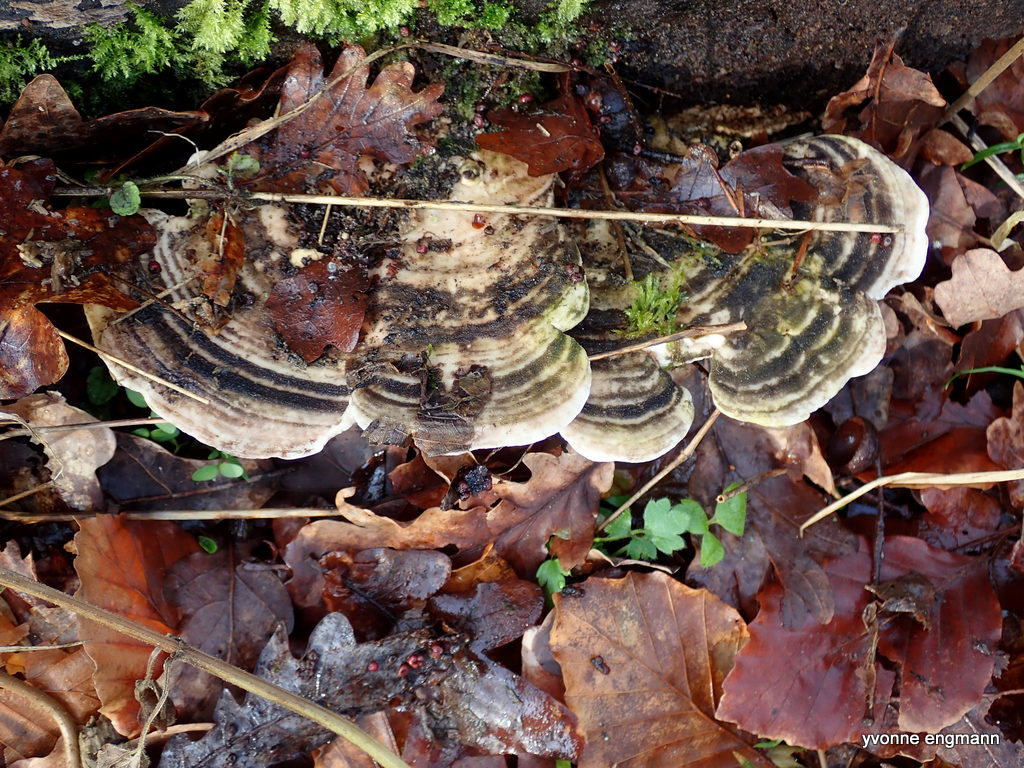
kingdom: Fungi
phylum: Basidiomycota
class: Agaricomycetes
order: Polyporales
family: Polyporaceae
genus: Trametes
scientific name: Trametes gibbosa
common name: puklet læderporesvamp
